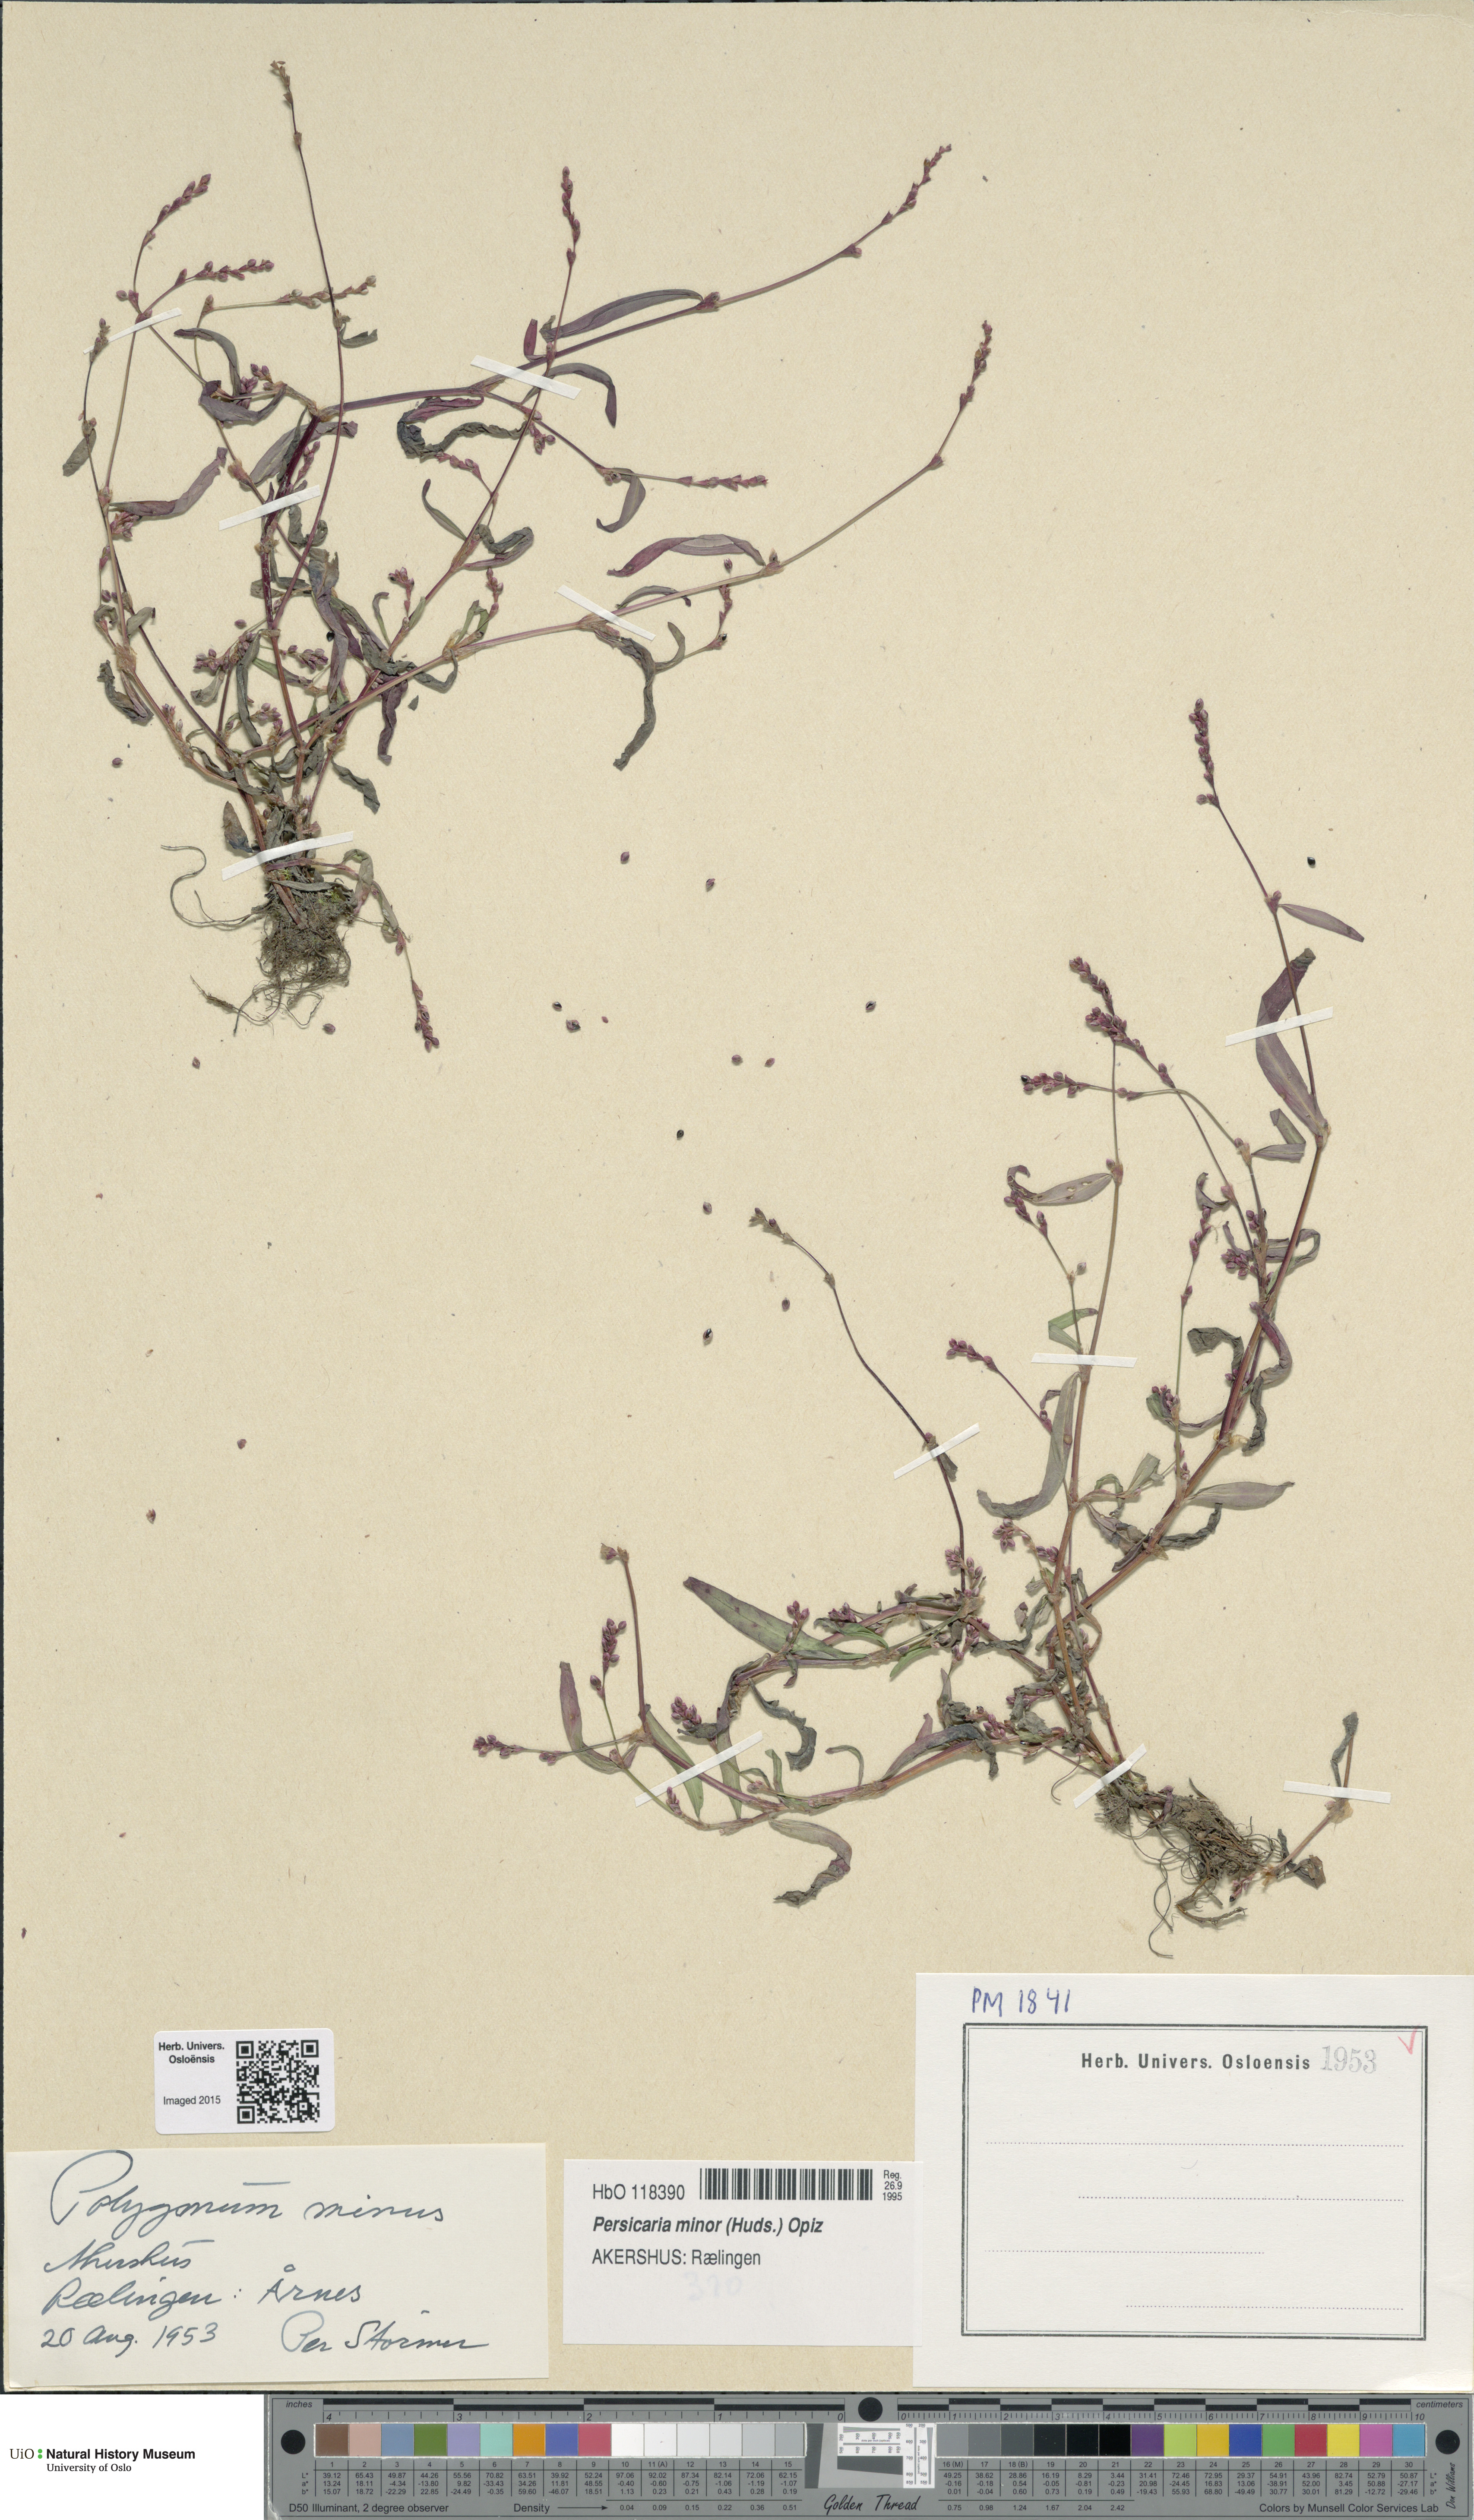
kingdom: Plantae
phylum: Tracheophyta
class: Magnoliopsida
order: Caryophyllales
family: Polygonaceae
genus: Persicaria
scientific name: Persicaria minor
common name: Small water-pepper
